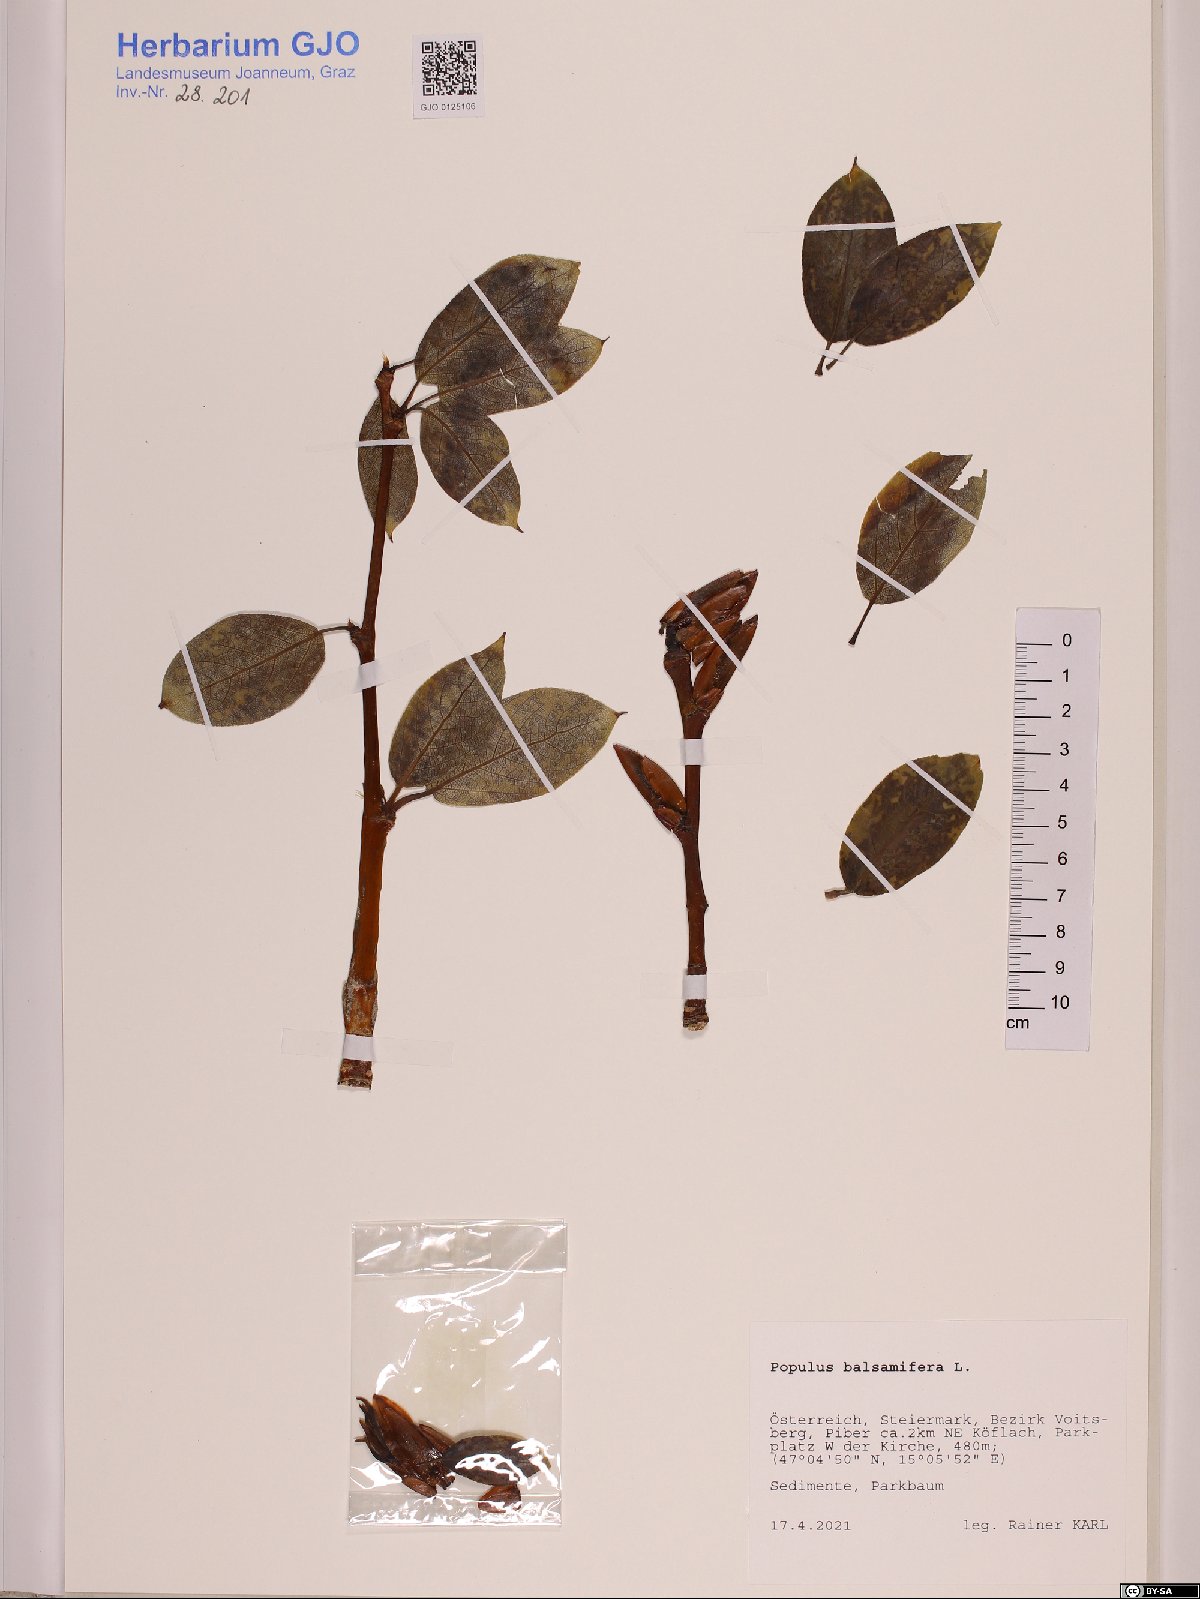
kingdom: Plantae
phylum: Tracheophyta
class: Magnoliopsida
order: Malpighiales
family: Salicaceae
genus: Populus
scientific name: Populus balsamifera
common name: Balsam poplar
